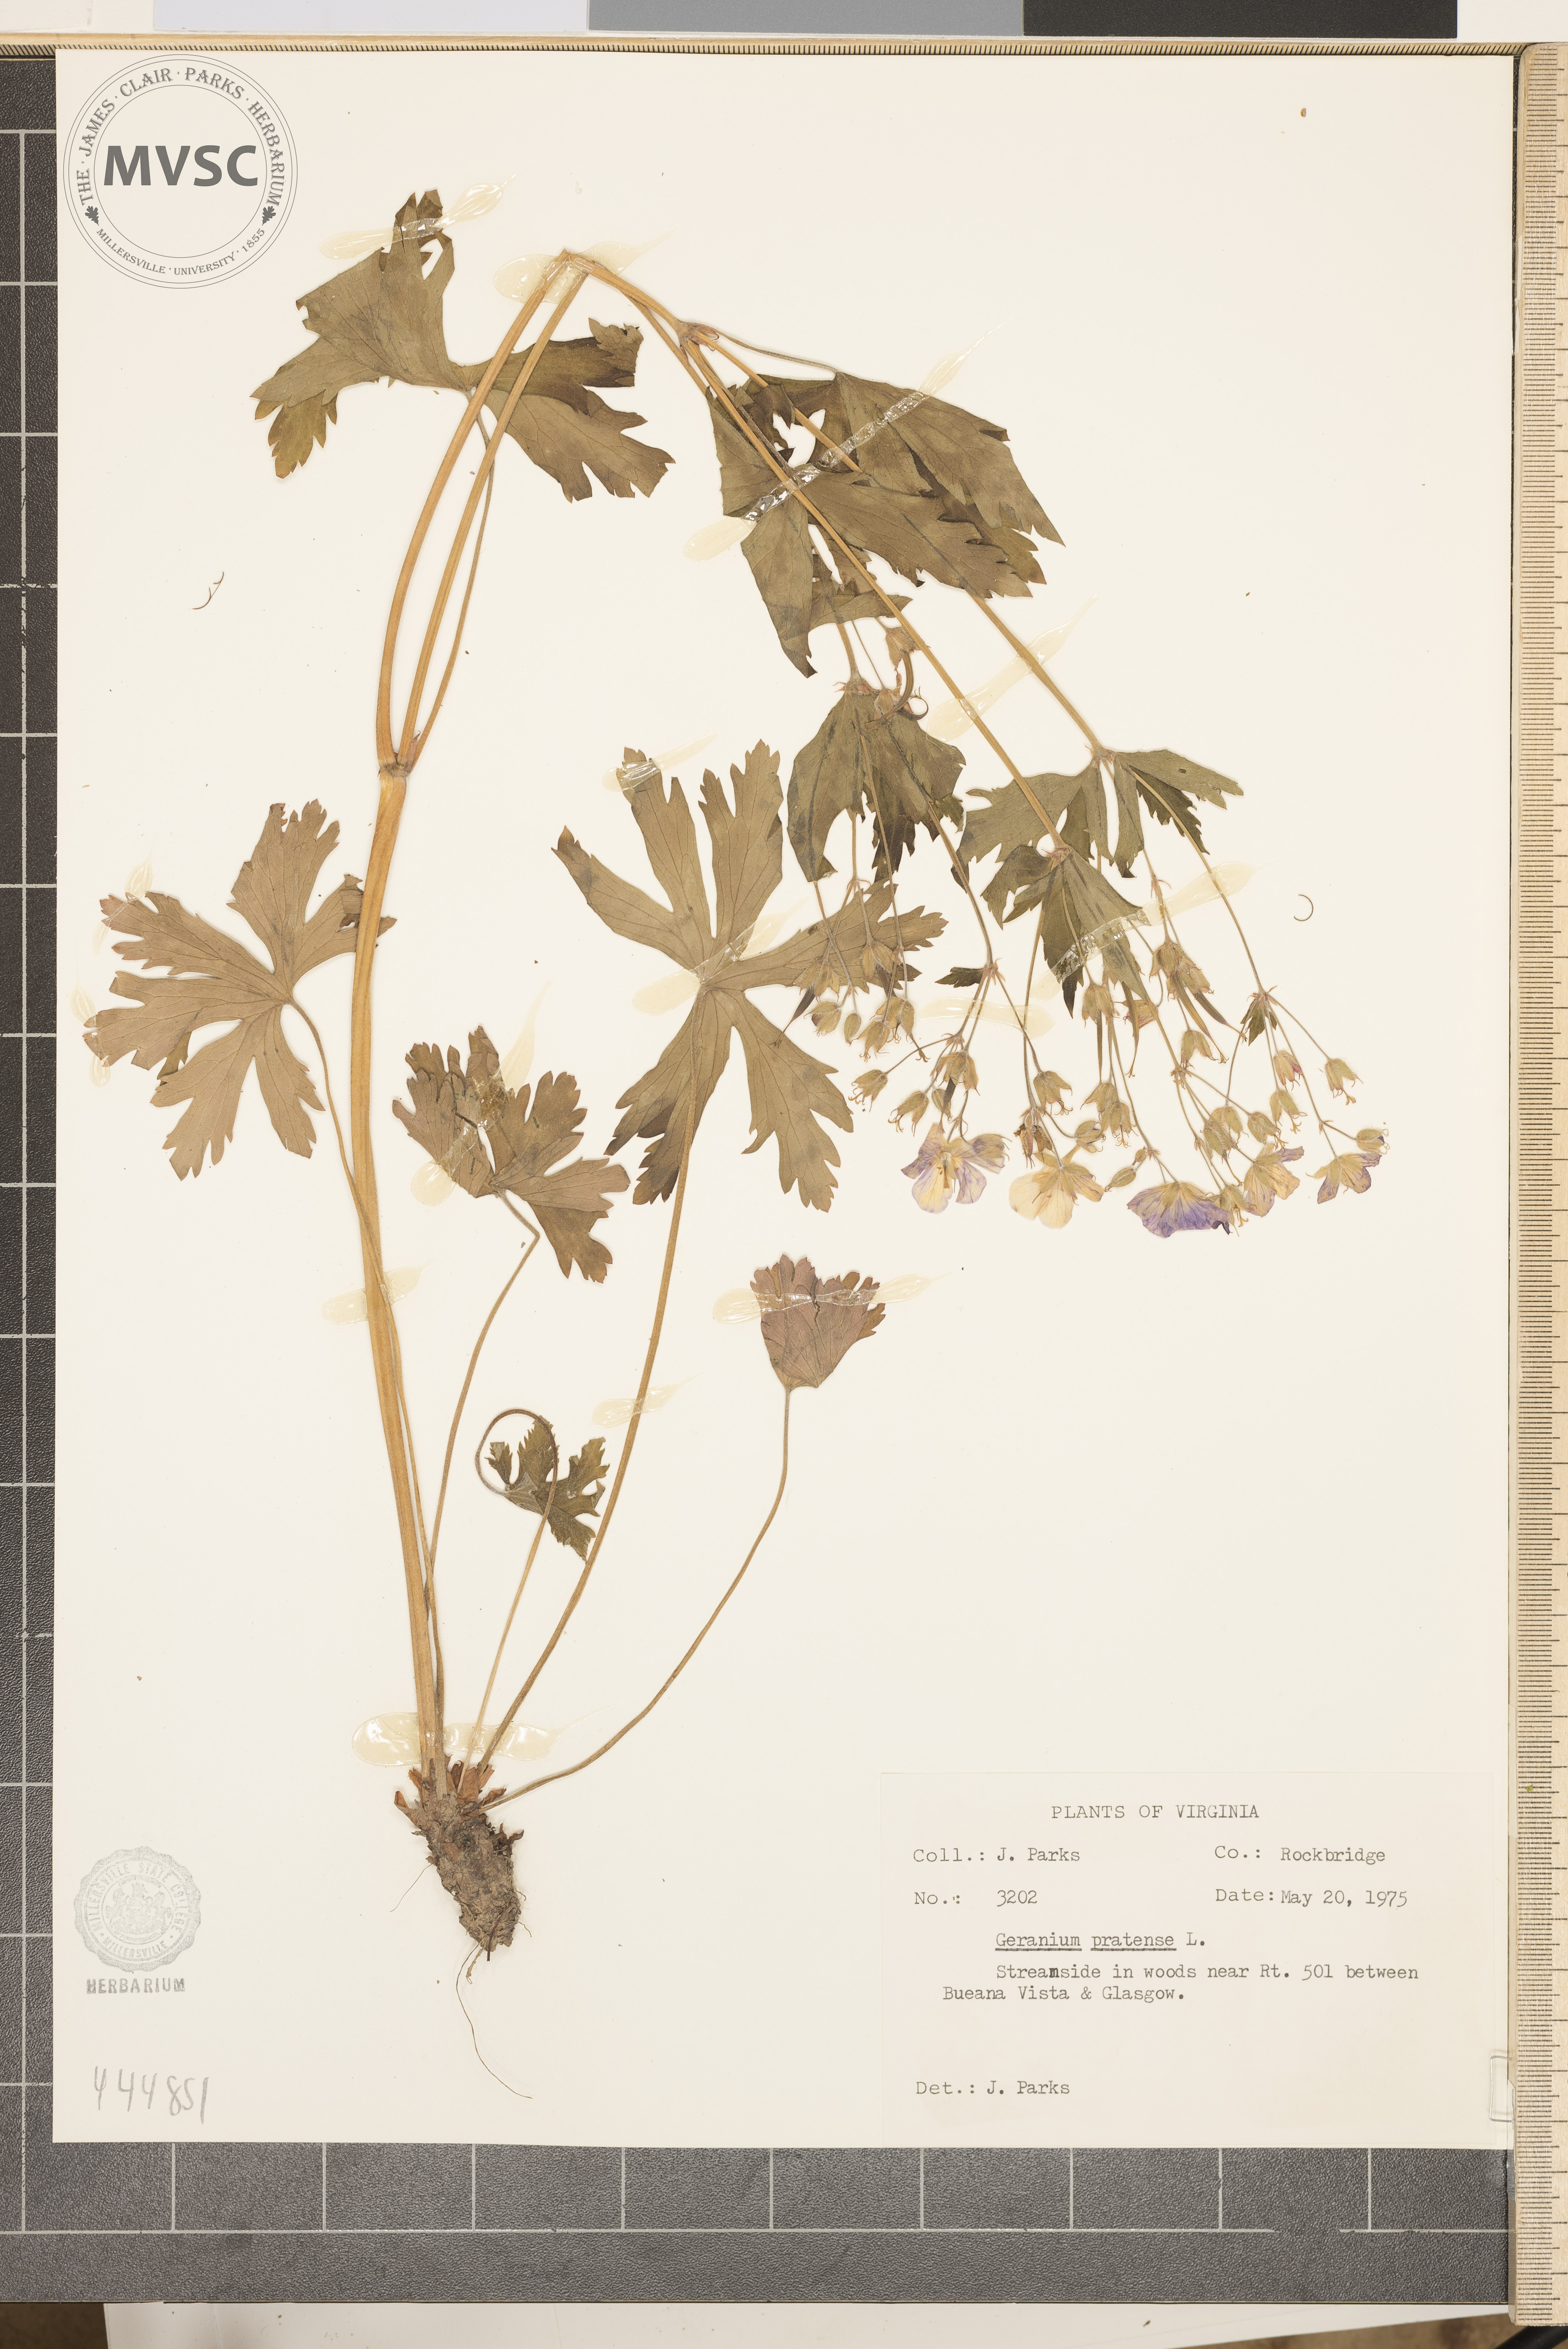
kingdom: Plantae
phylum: Tracheophyta
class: Magnoliopsida
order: Geraniales
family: Geraniaceae
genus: Geranium
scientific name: Geranium maculatum
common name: Spotted geranium
